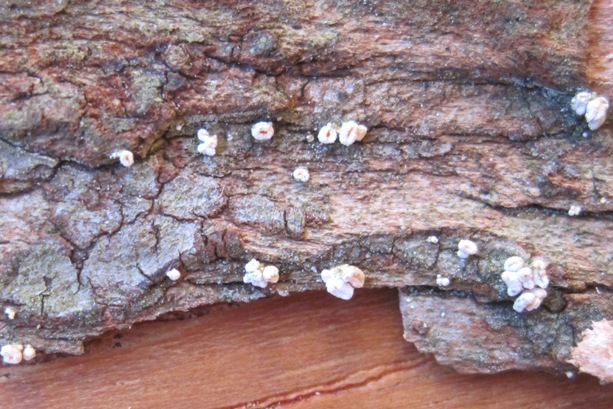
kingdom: Fungi
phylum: Ascomycota
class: Leotiomycetes
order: Helotiales
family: Lachnaceae
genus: Lachnellula
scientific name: Lachnellula
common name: frynseskive
